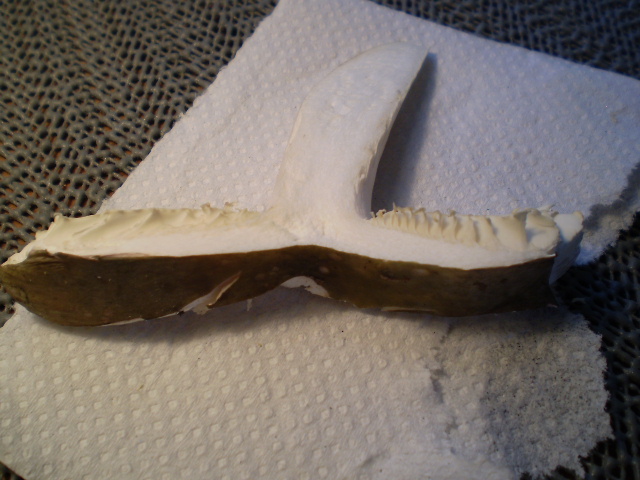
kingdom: Fungi
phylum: Basidiomycota
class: Agaricomycetes
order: Russulales
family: Russulaceae
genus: Russula
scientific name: Russula ionochlora
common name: violetgrøn skørhat
